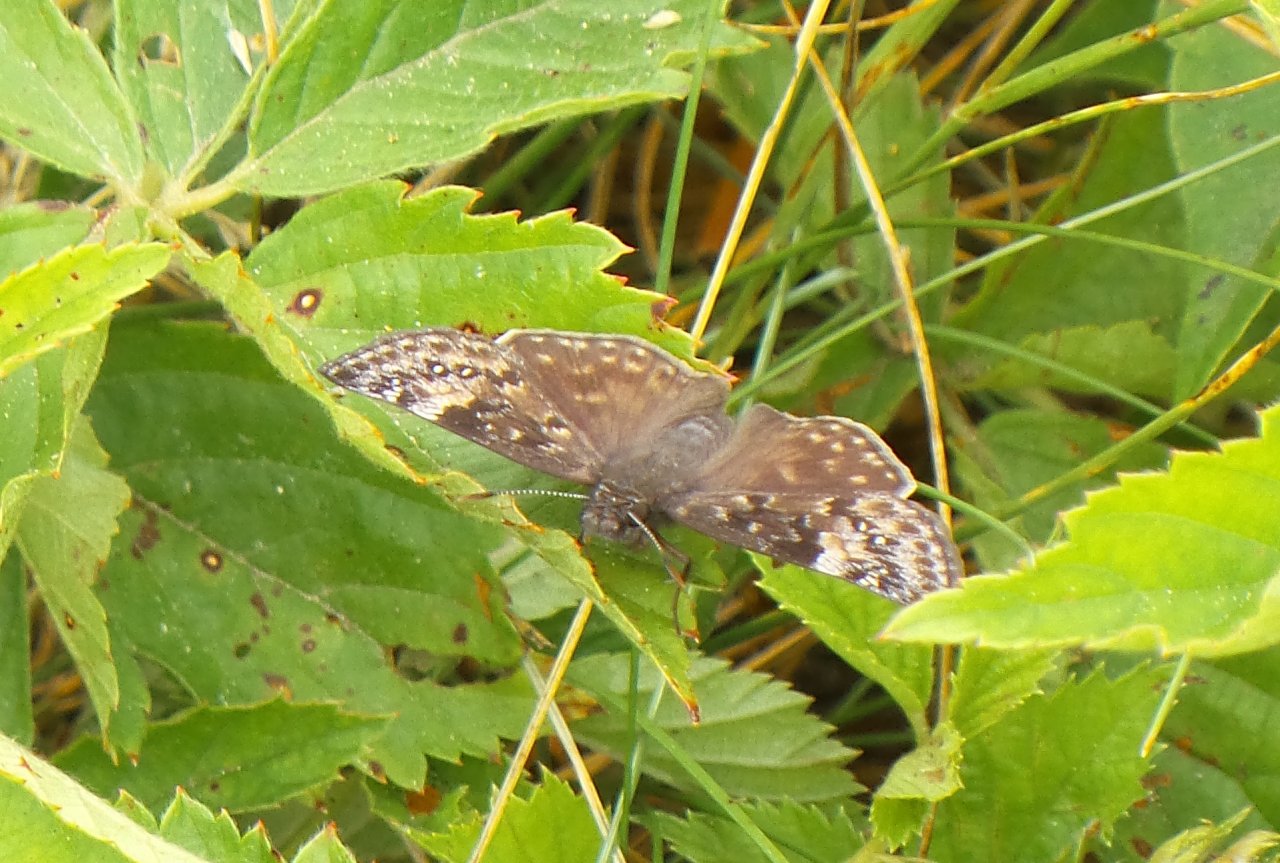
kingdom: Animalia
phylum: Arthropoda
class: Insecta
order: Lepidoptera
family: Hesperiidae
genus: Gesta
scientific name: Gesta
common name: Wild Indigo Duskywing
